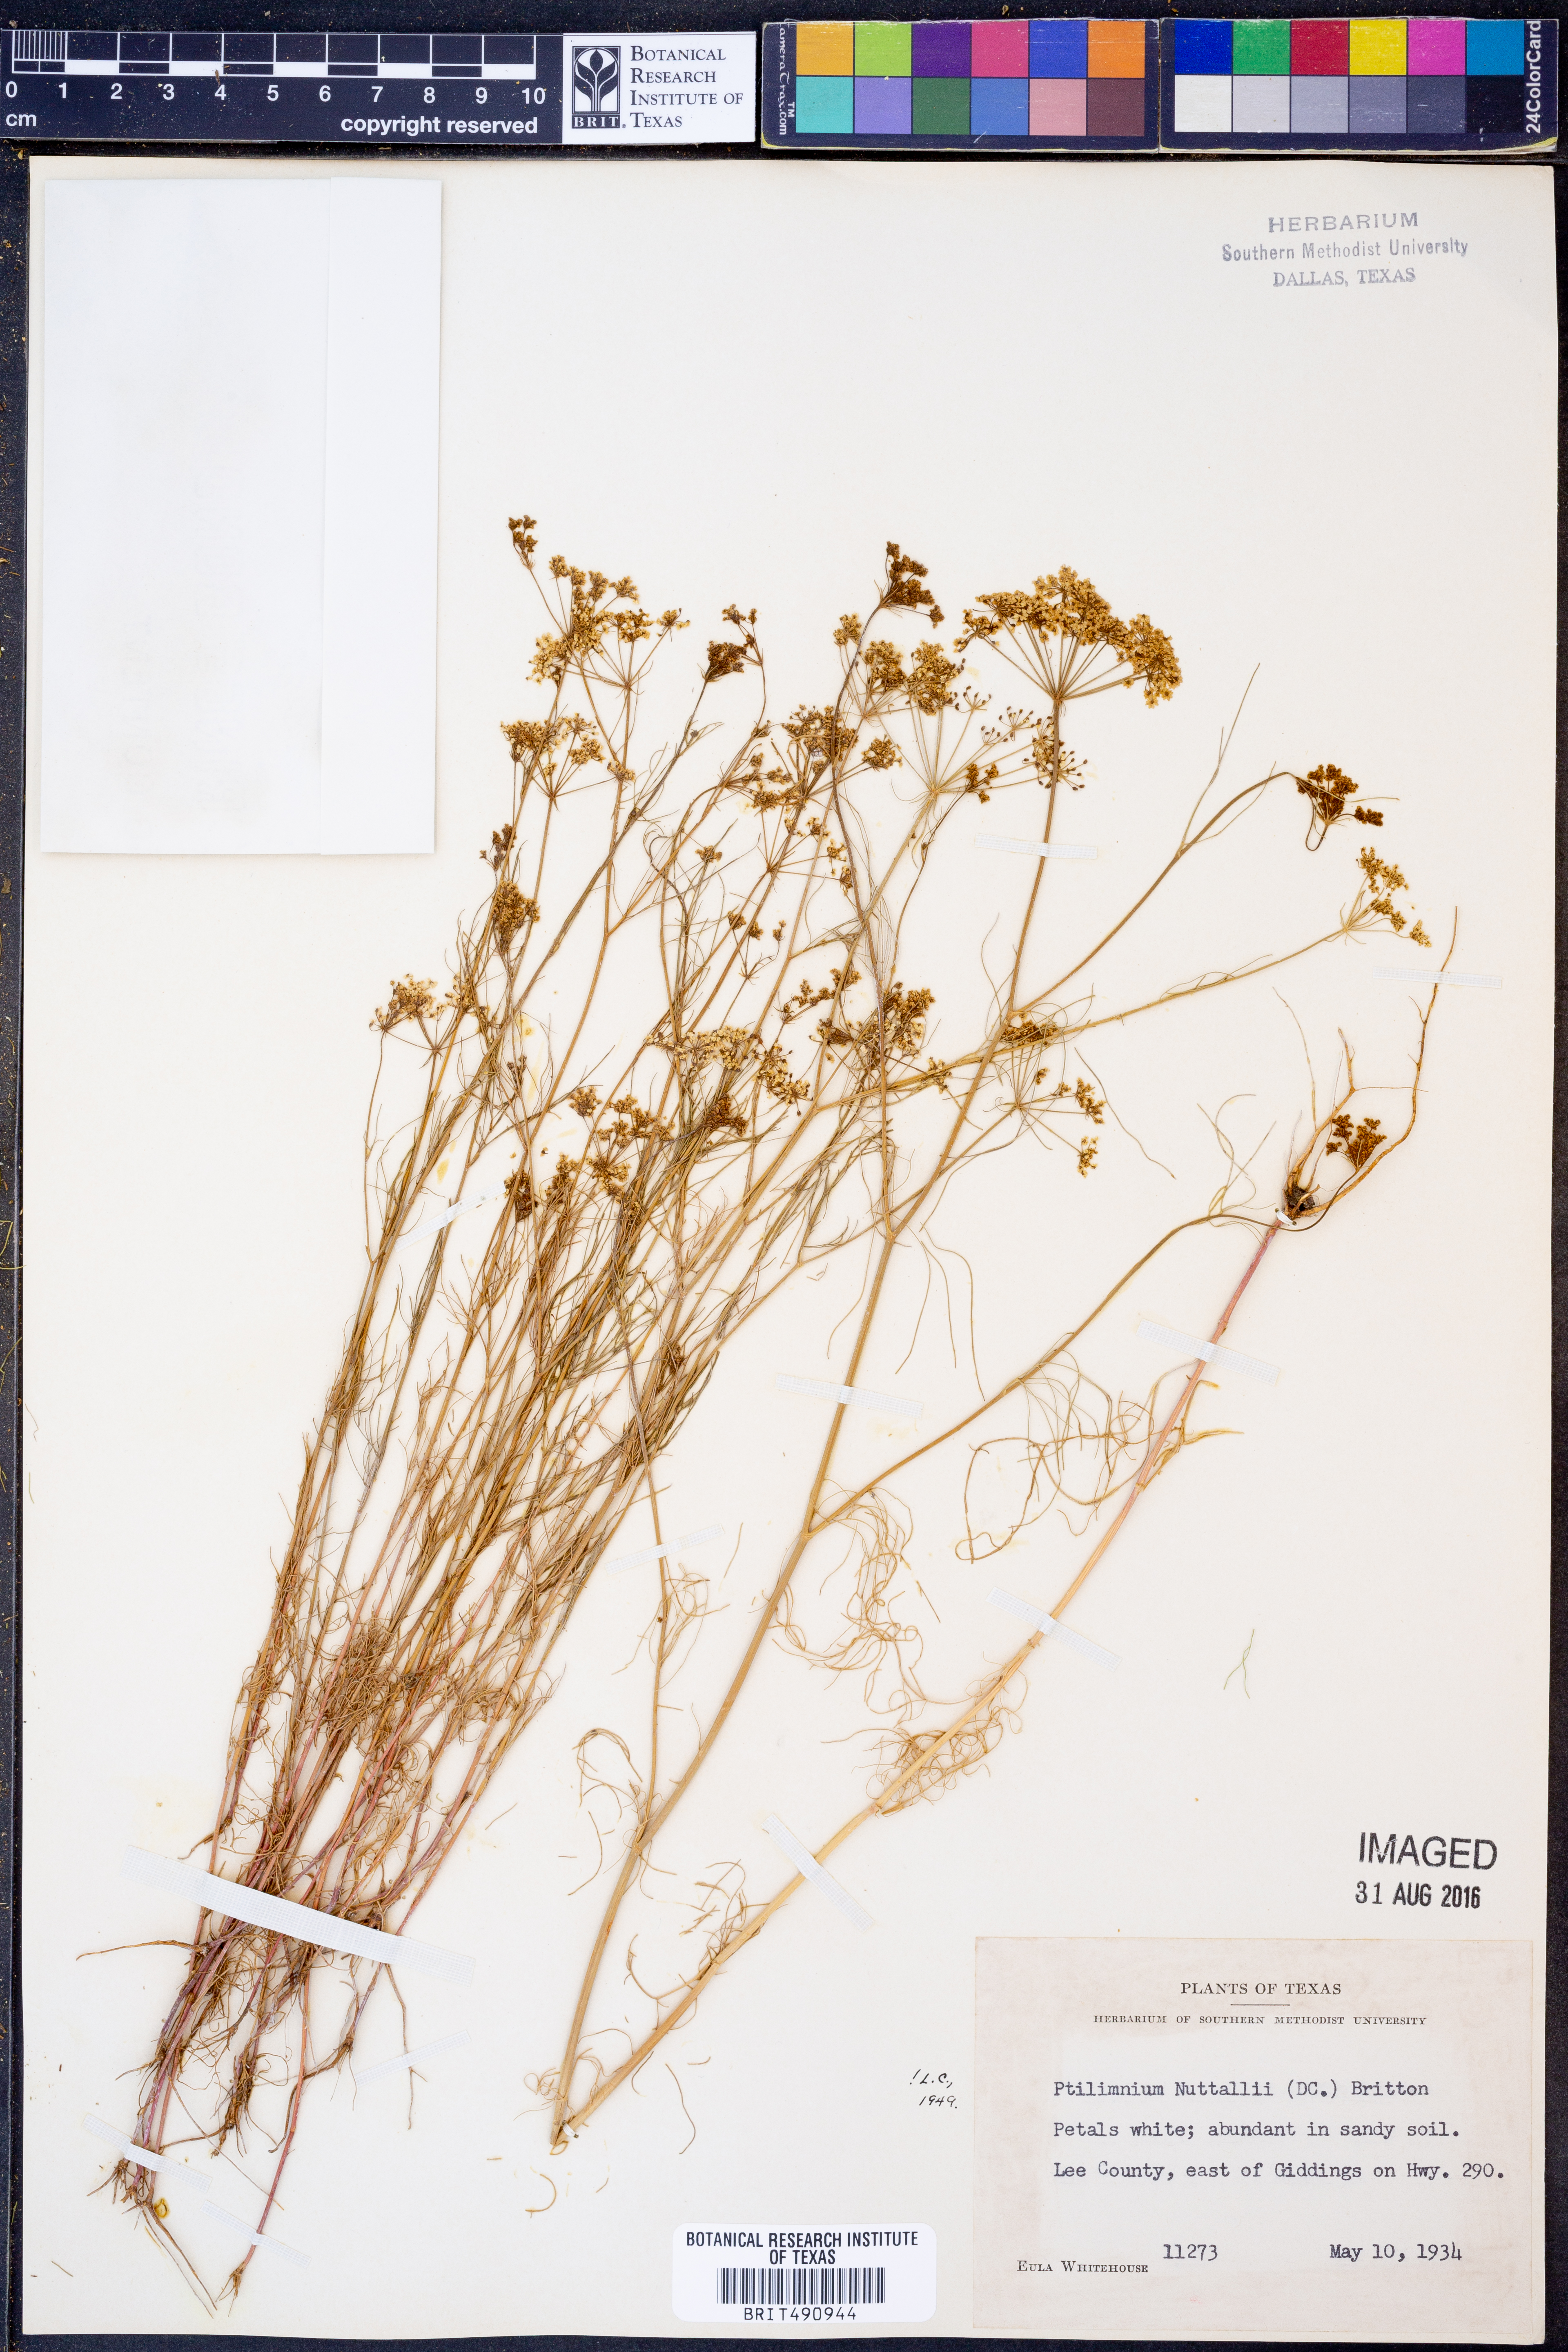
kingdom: Plantae
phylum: Tracheophyta
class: Magnoliopsida
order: Apiales
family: Apiaceae
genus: Ptilimnium
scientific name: Ptilimnium nuttallii
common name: Ozark bishop's-weed
